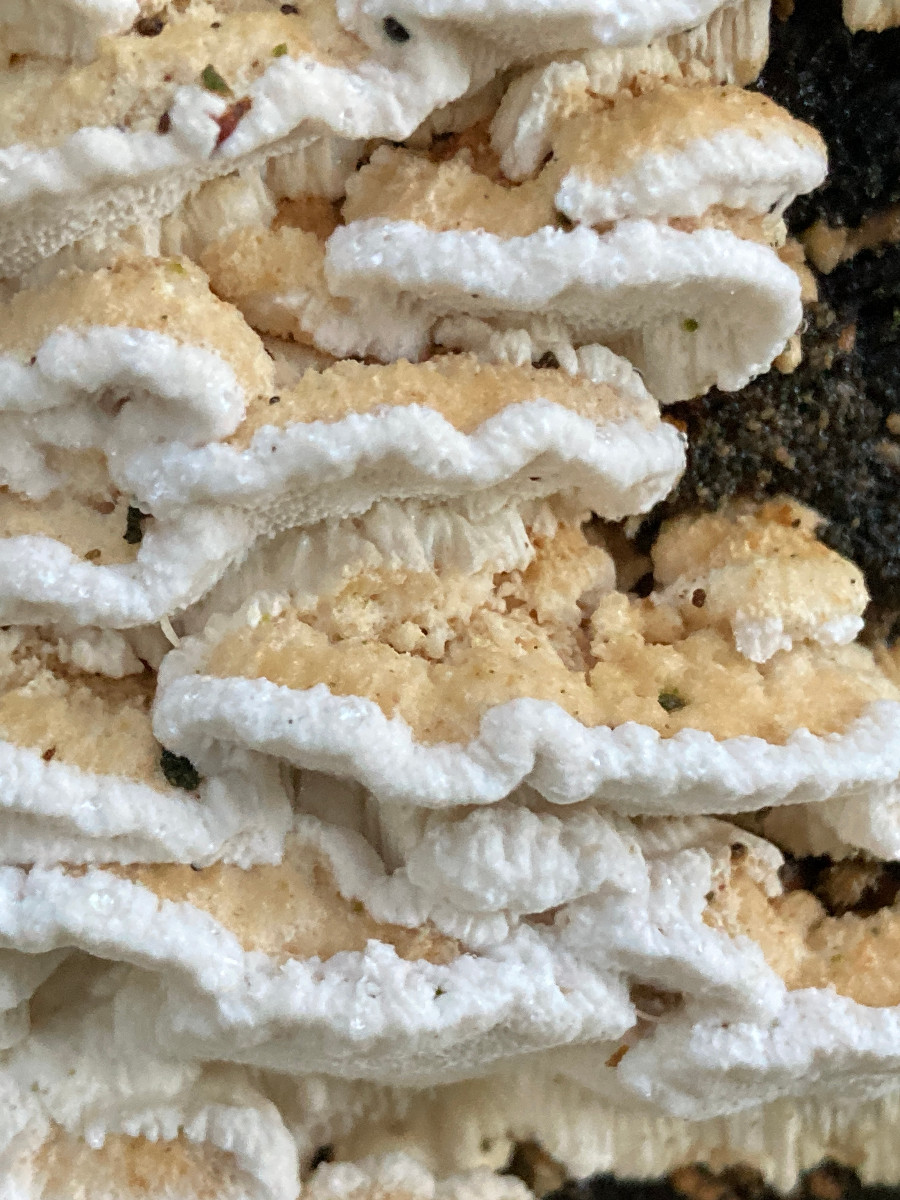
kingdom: Fungi
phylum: Basidiomycota
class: Agaricomycetes
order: Polyporales
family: Fomitopsidaceae
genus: Neoantrodia
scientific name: Neoantrodia serialis
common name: række-sejporesvamp
